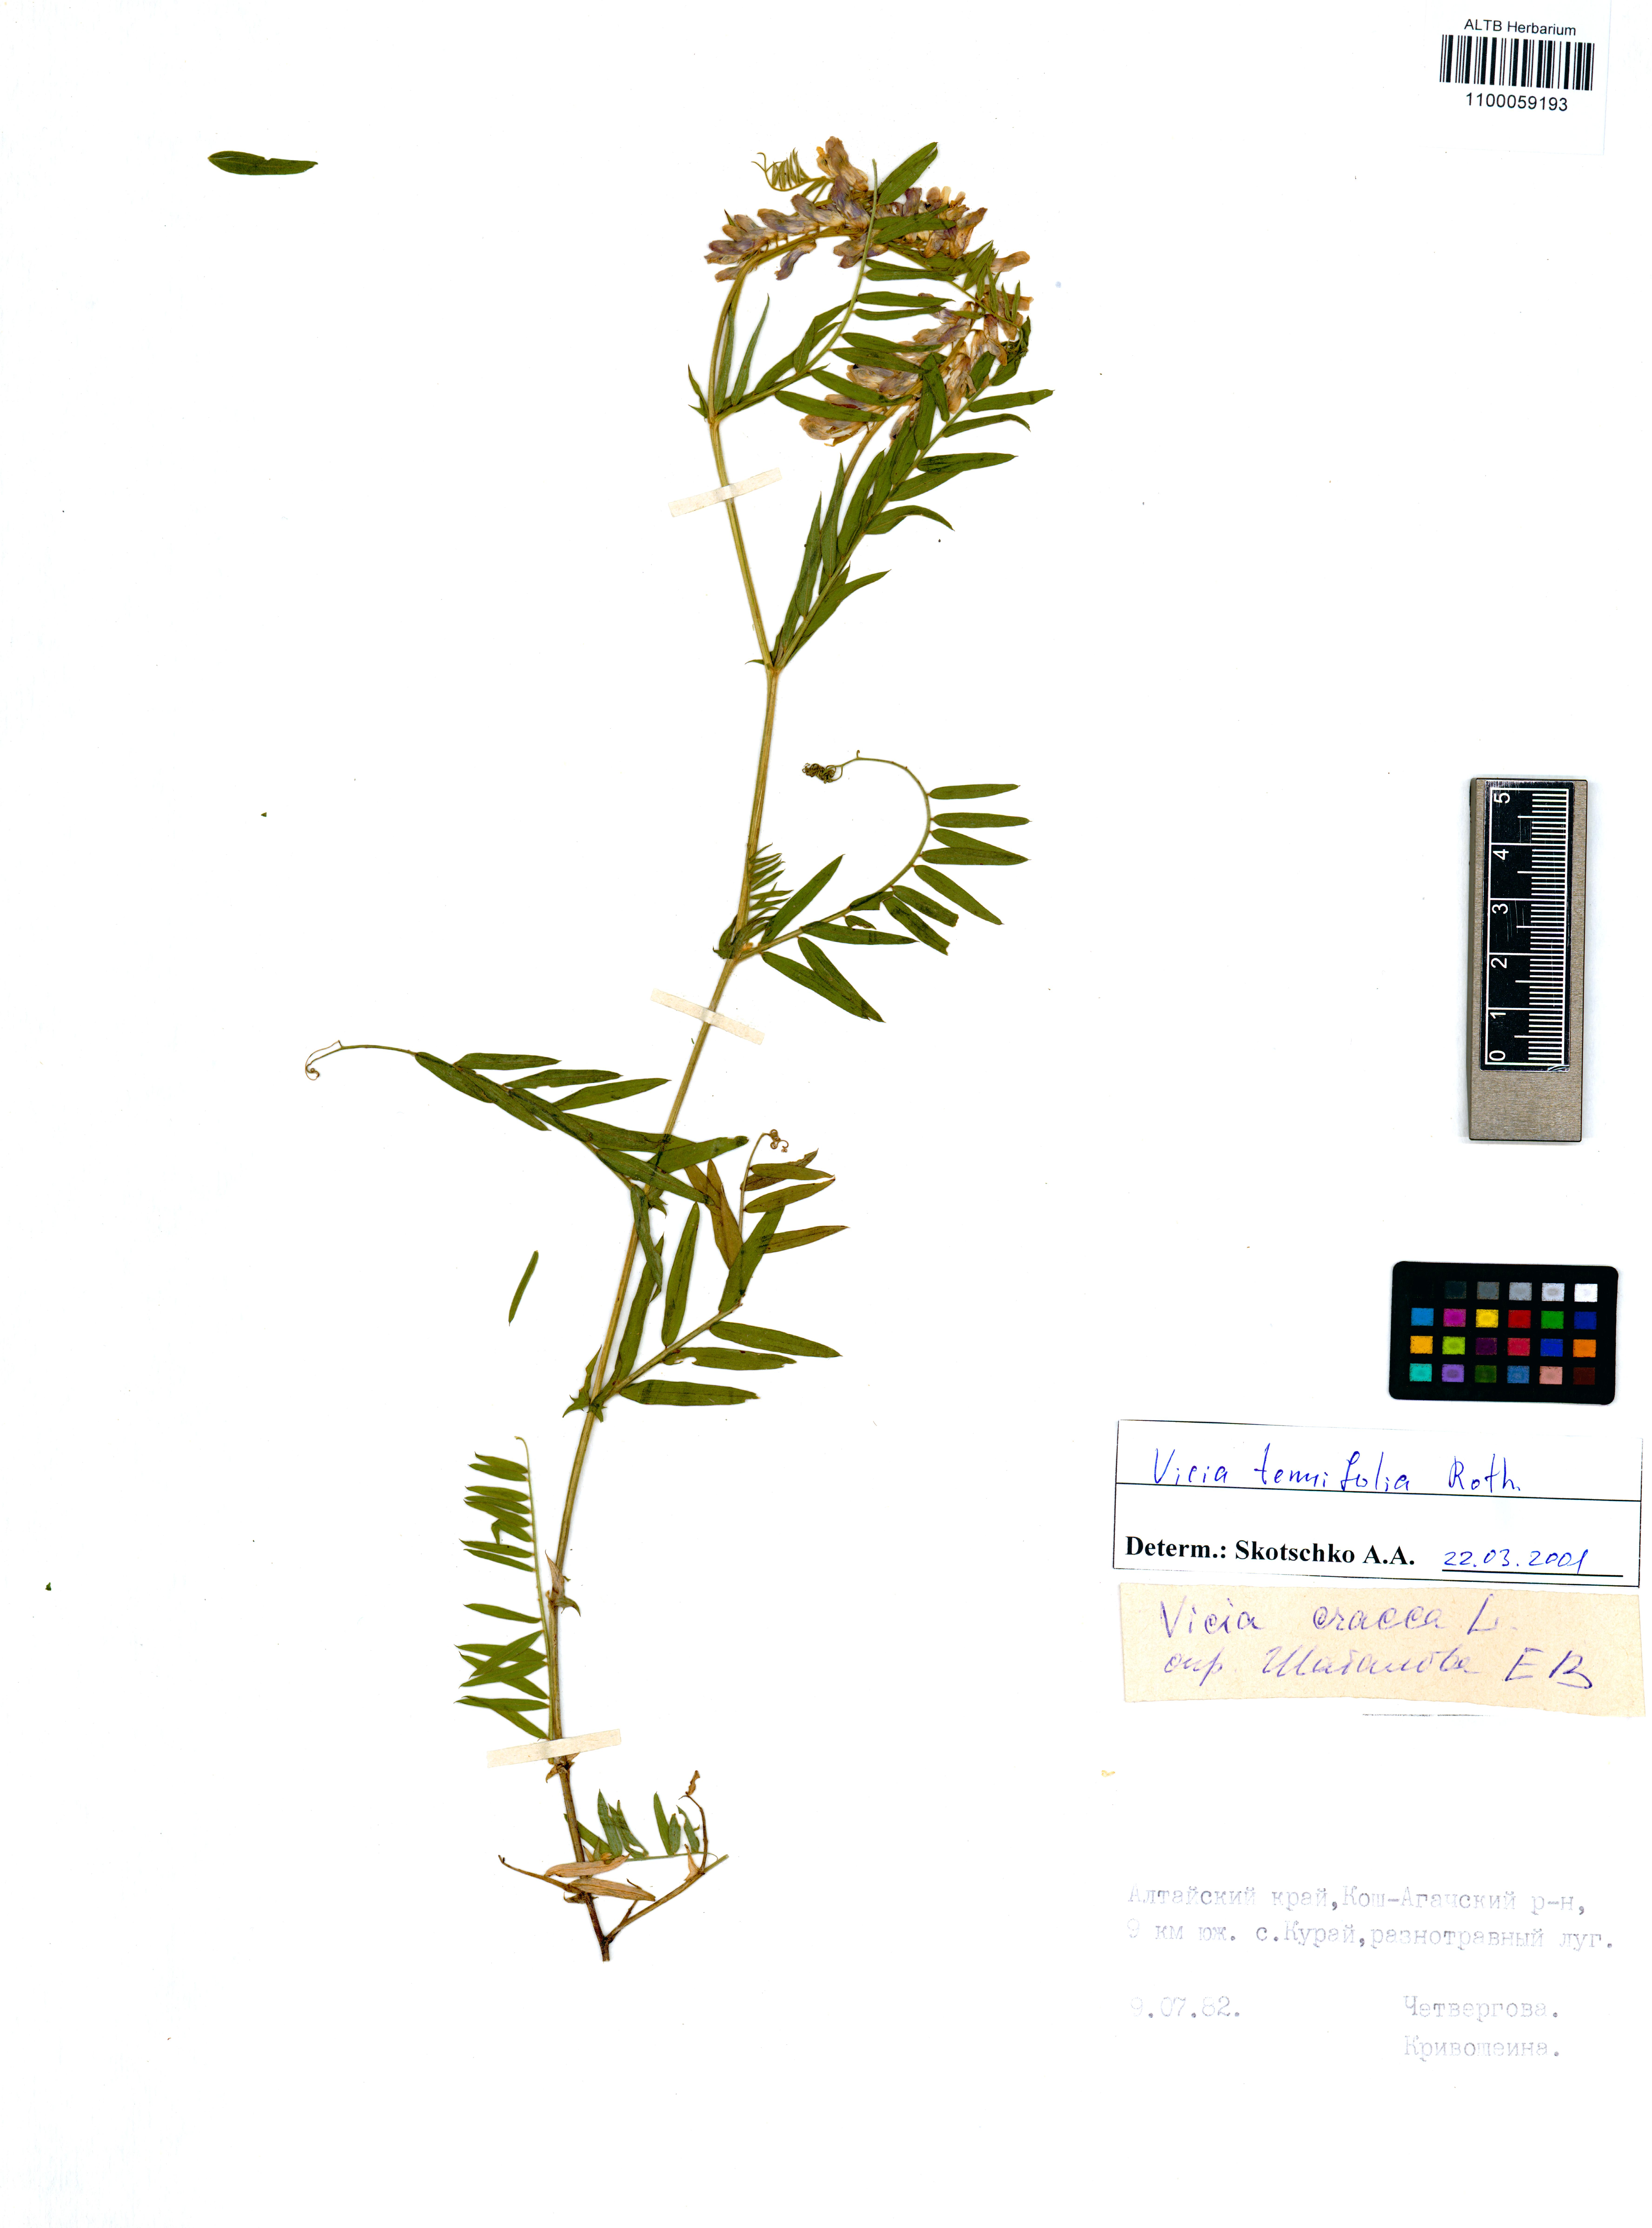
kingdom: Plantae
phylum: Tracheophyta
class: Magnoliopsida
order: Fabales
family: Fabaceae
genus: Vicia
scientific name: Vicia tenuifolia
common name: Fine-leaved vetch
